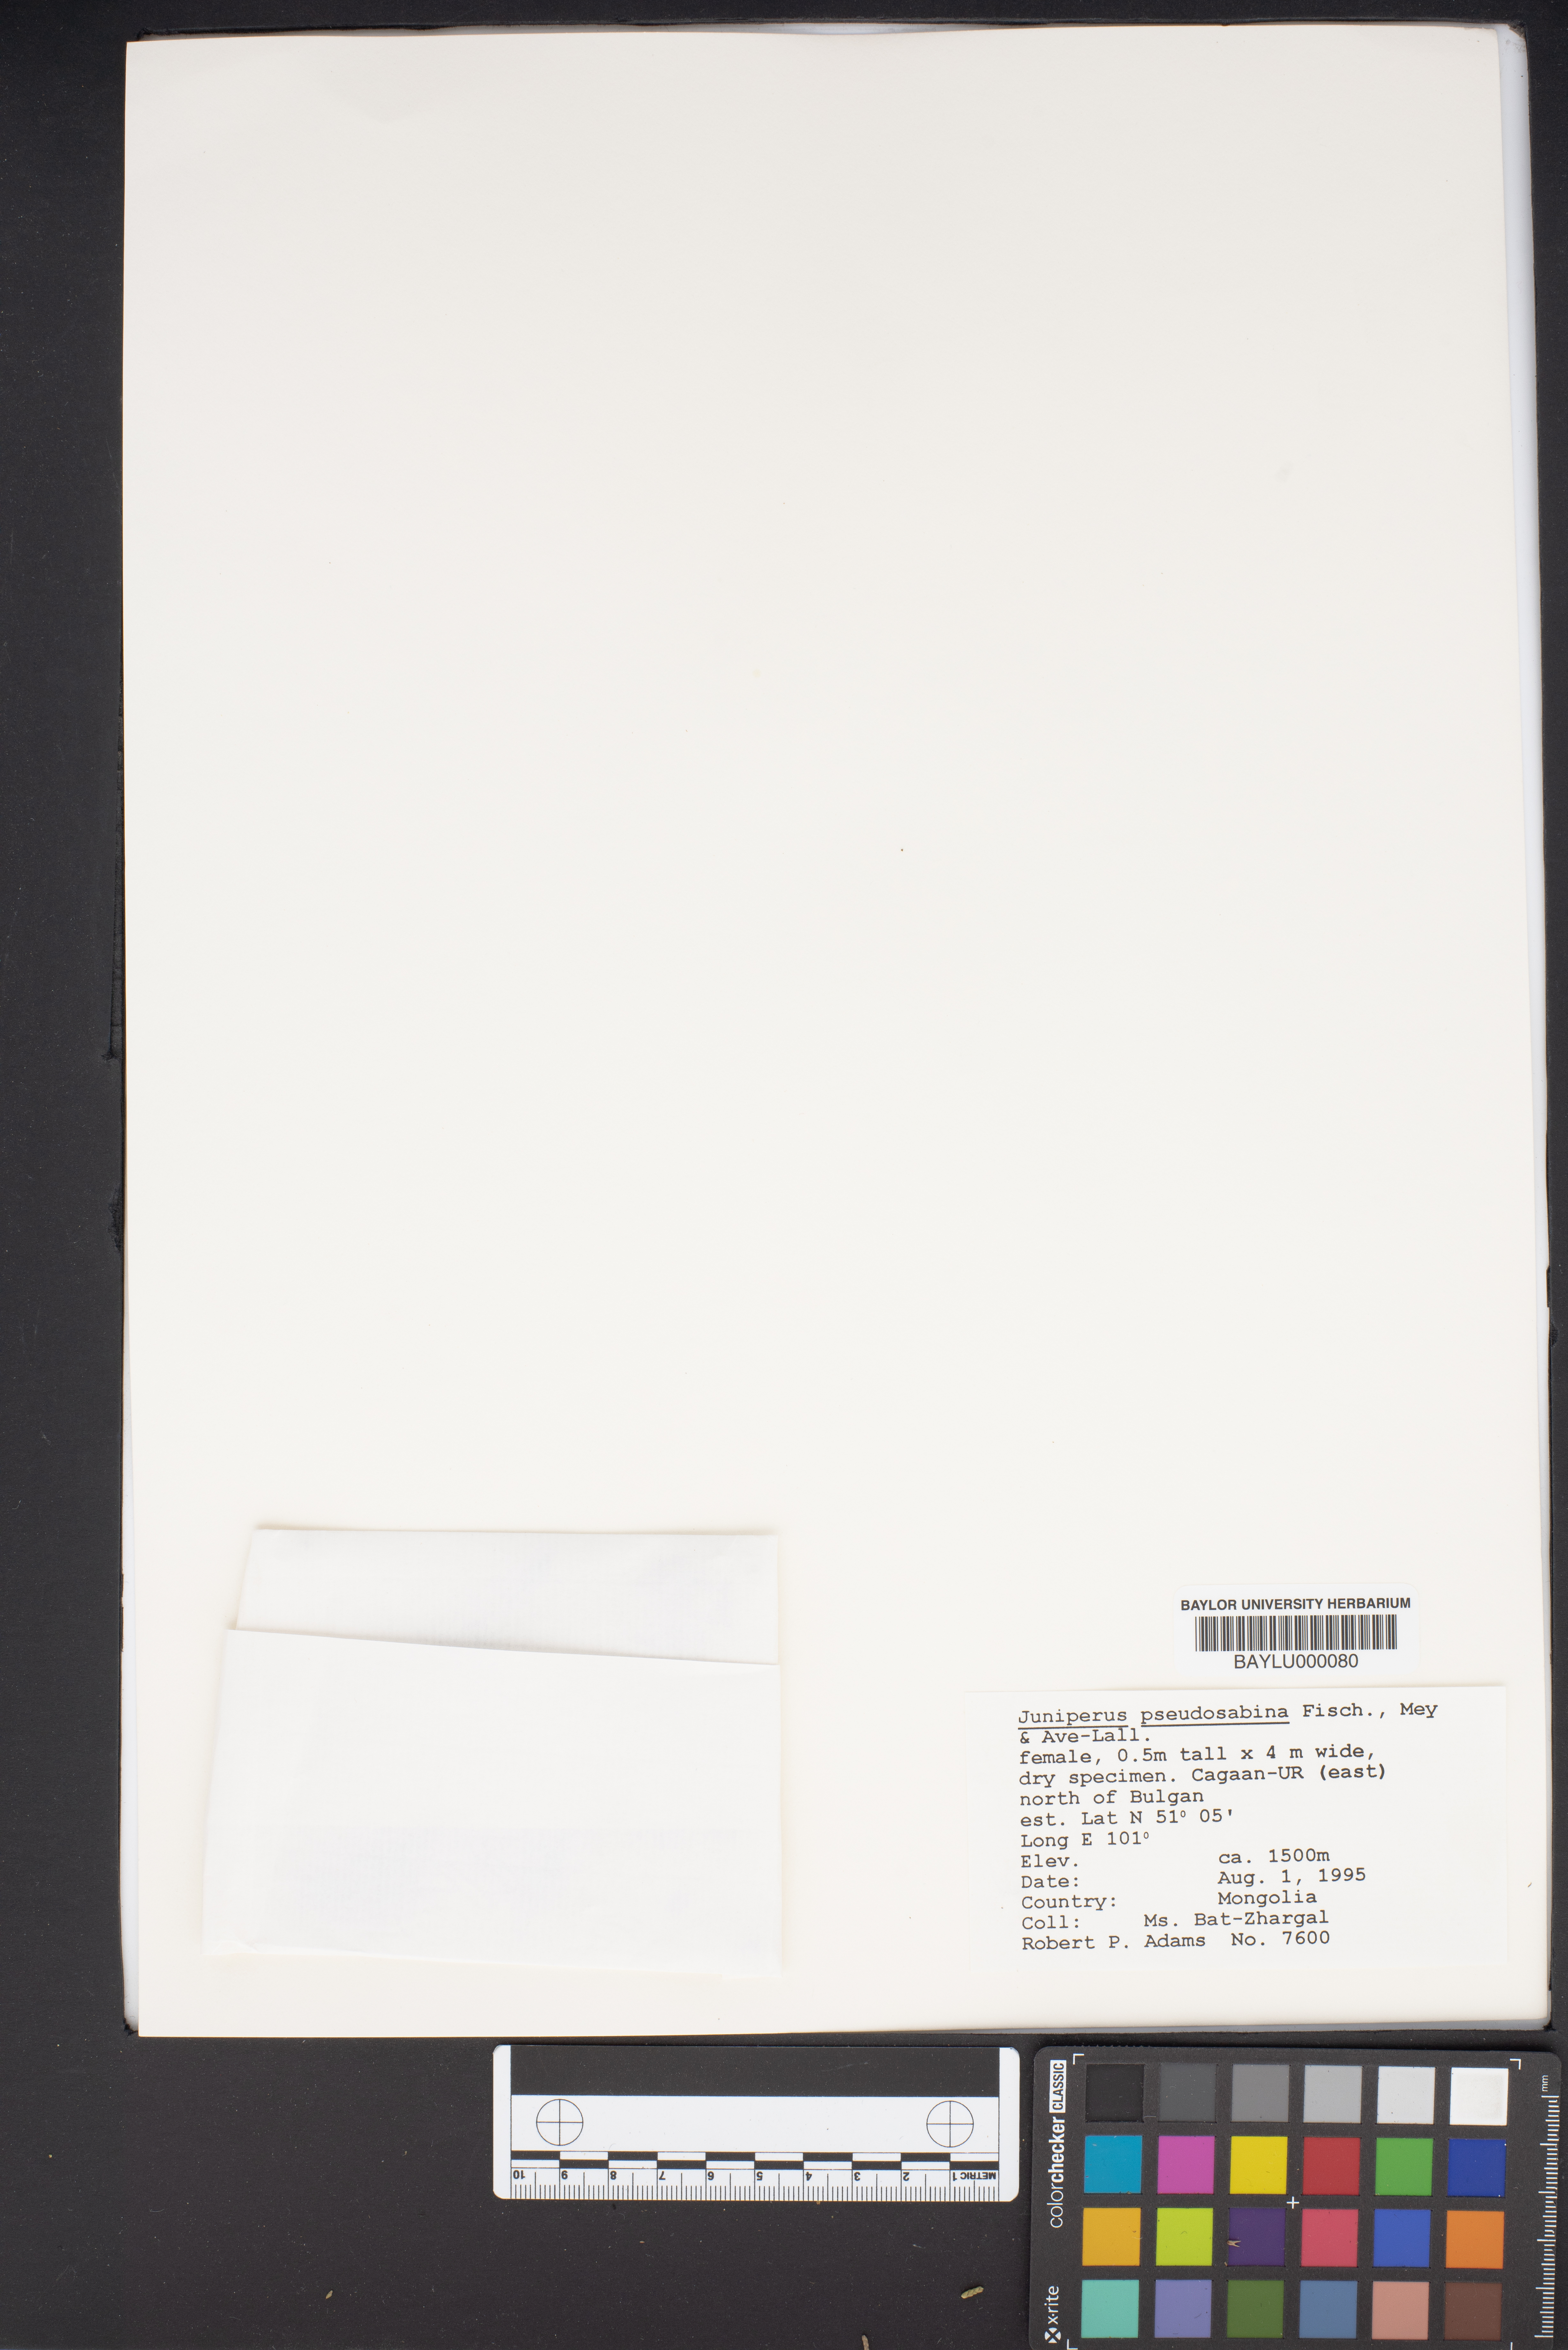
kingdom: Plantae
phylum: Tracheophyta
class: Pinopsida
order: Pinales
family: Cupressaceae
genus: Juniperus
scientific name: Juniperus pseudosabina
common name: Turkestan juniper
